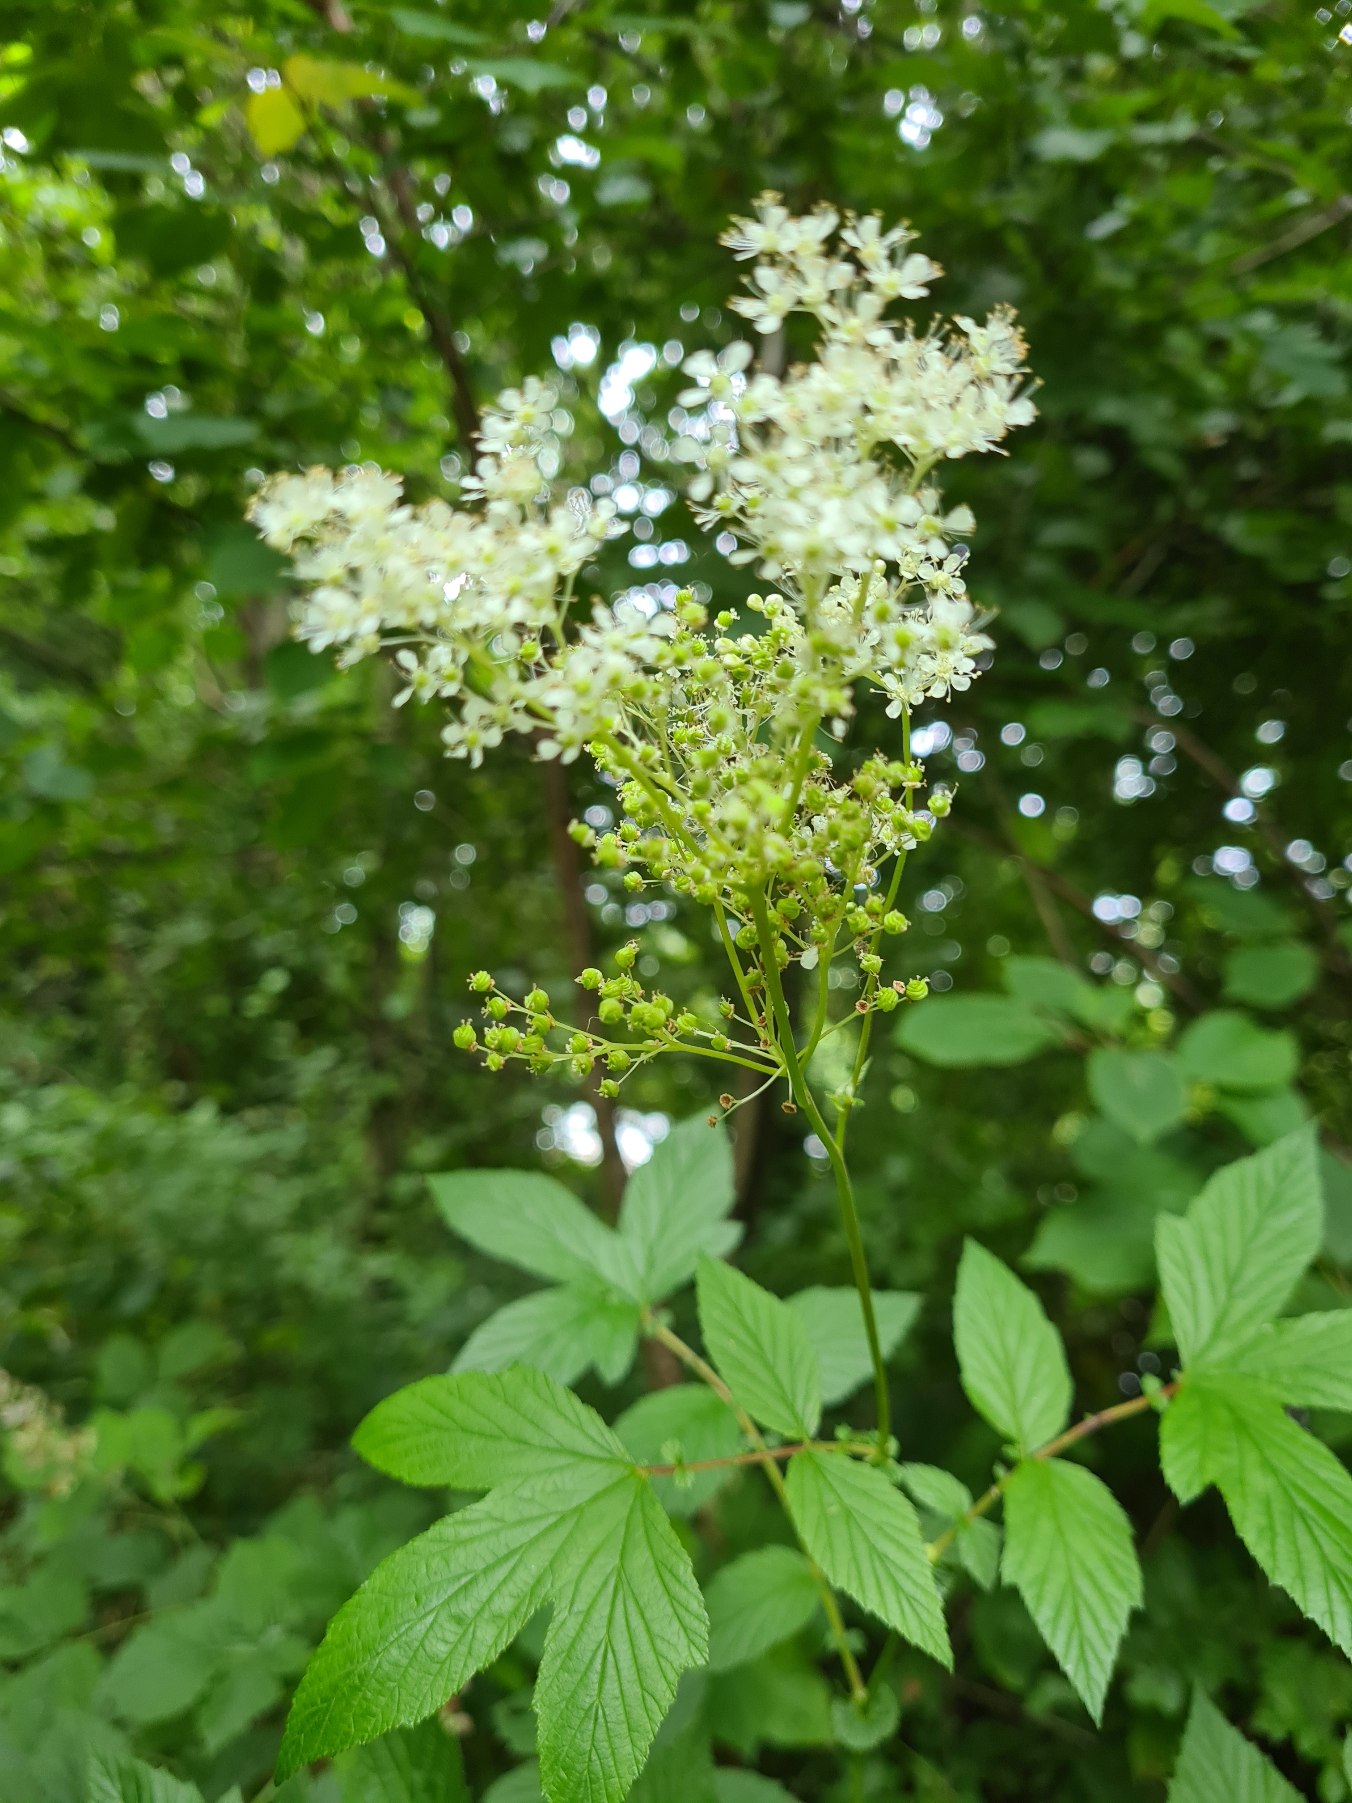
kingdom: Plantae
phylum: Tracheophyta
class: Magnoliopsida
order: Rosales
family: Rosaceae
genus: Filipendula
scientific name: Filipendula ulmaria
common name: Almindelig mjødurt
